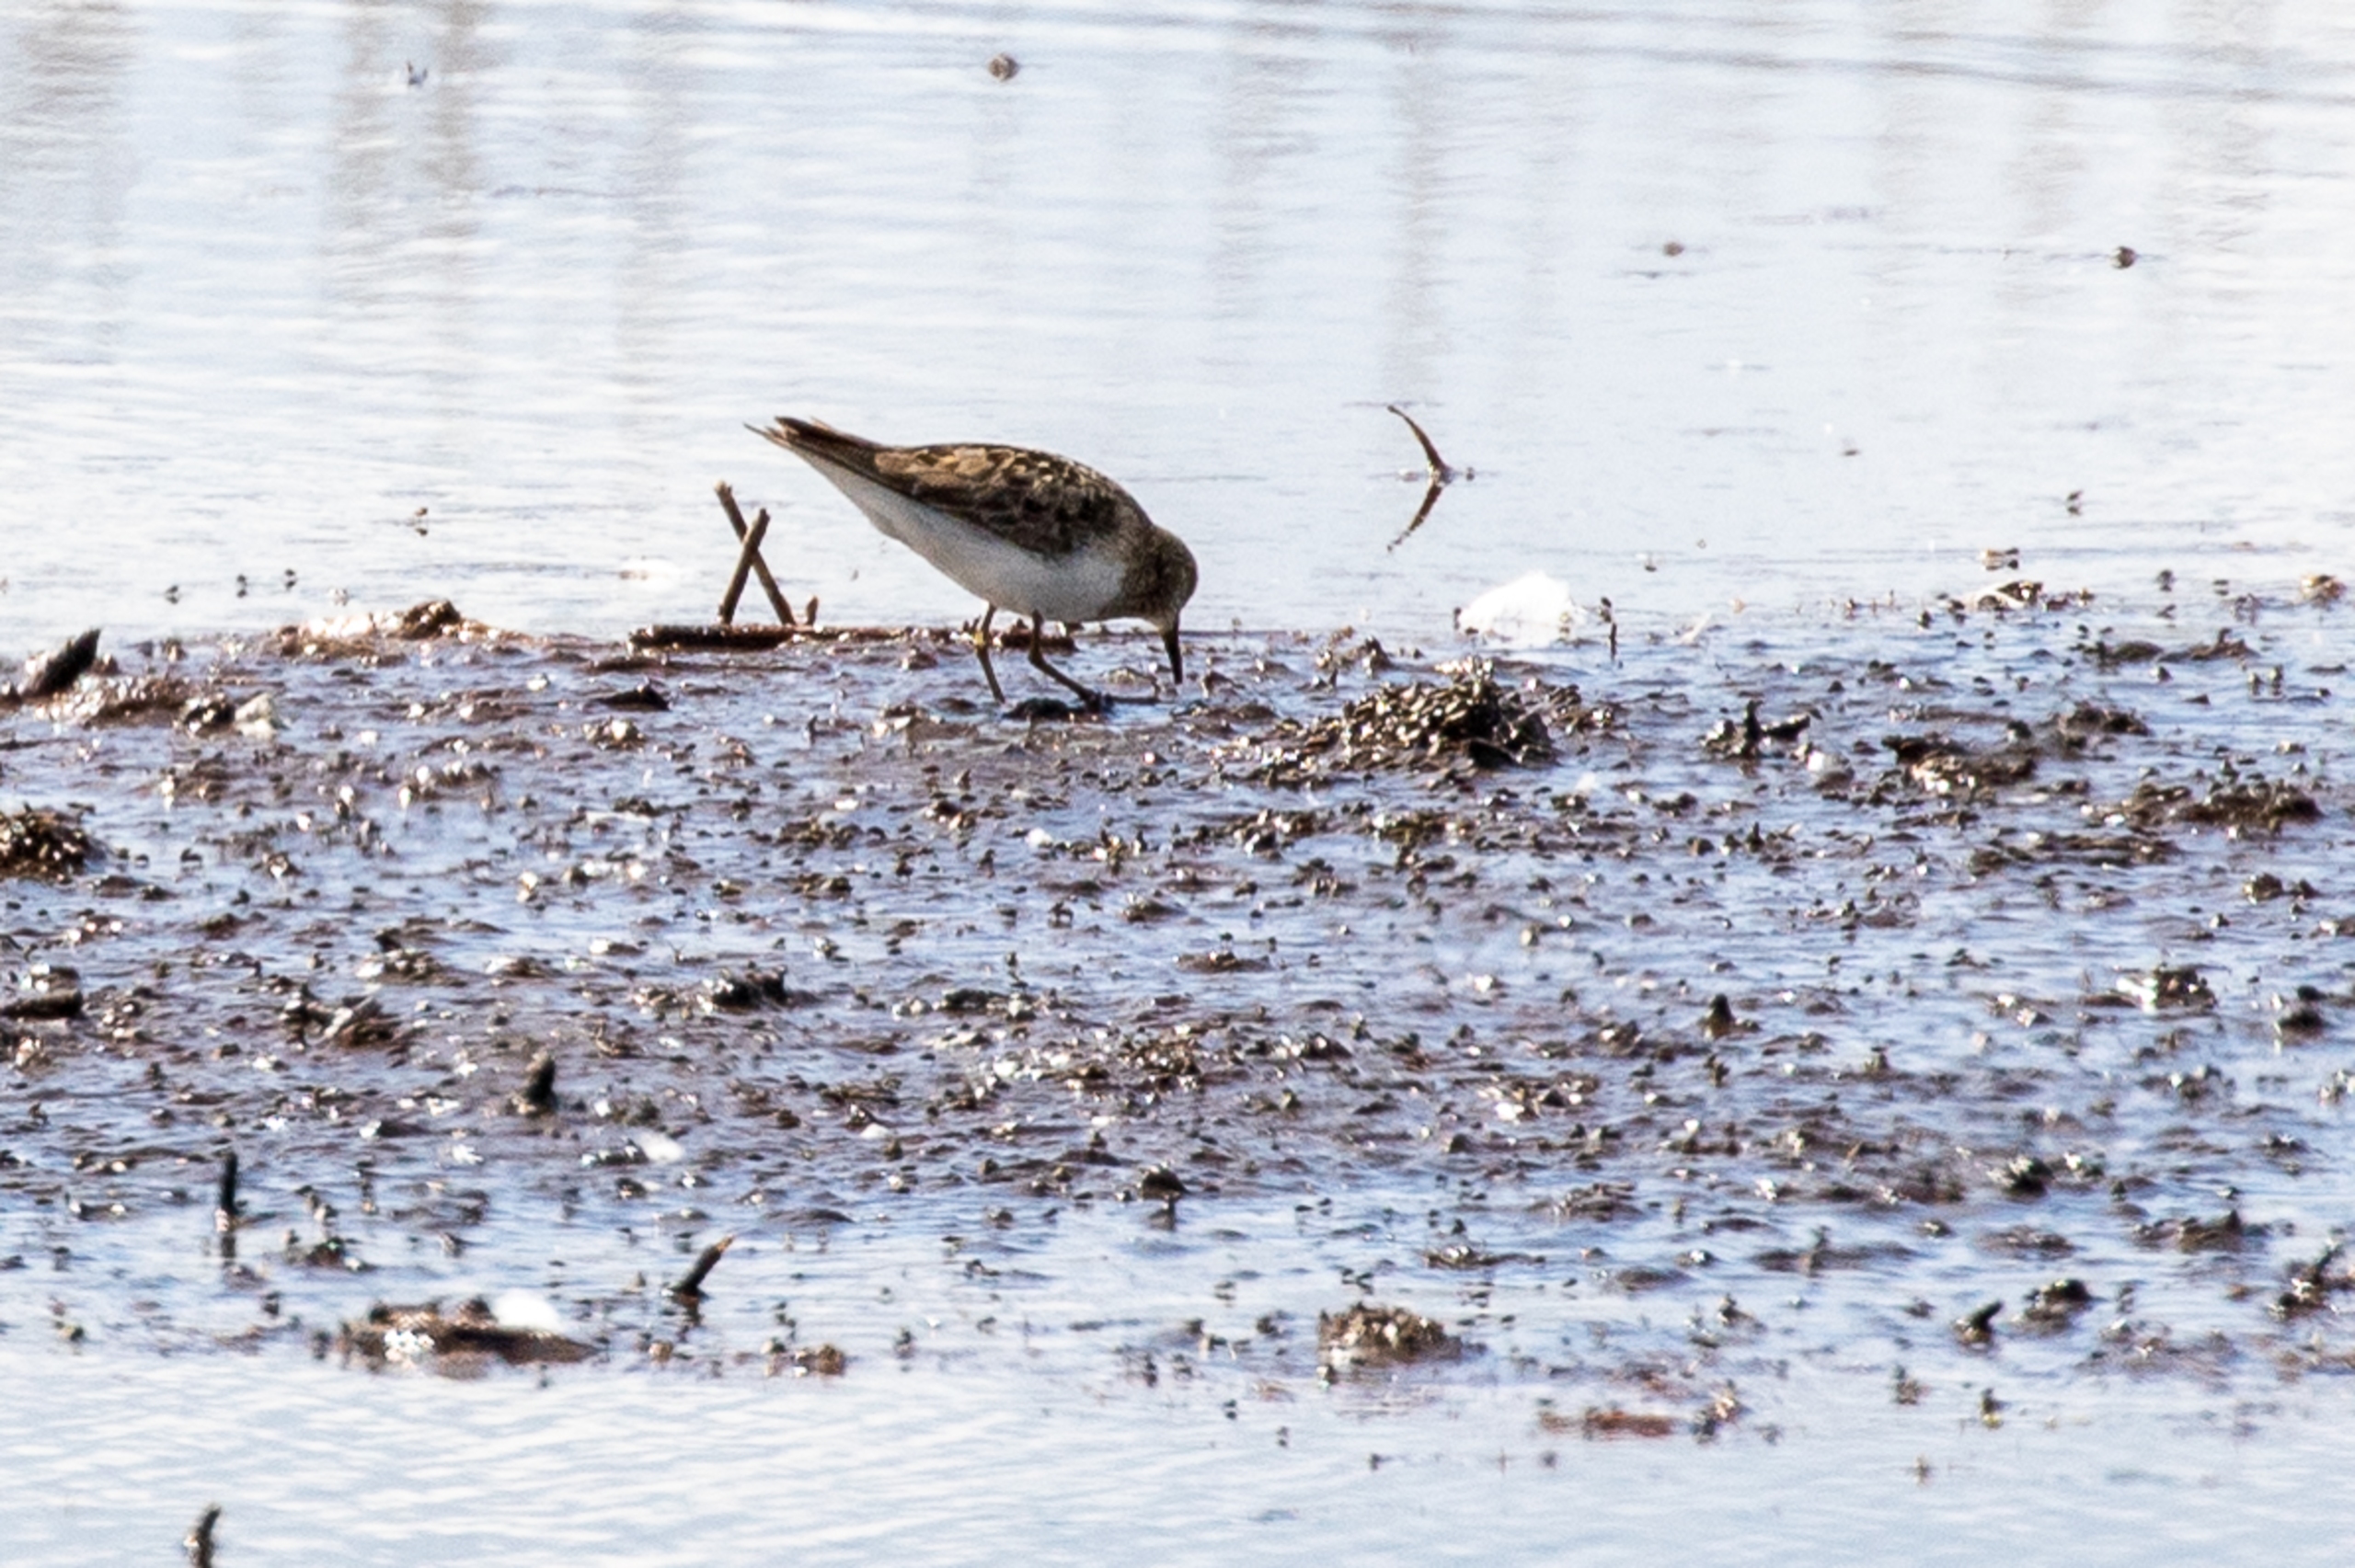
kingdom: Animalia
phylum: Chordata
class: Aves
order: Charadriiformes
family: Scolopacidae
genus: Calidris
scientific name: Calidris temminckii
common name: Temmincksryle
